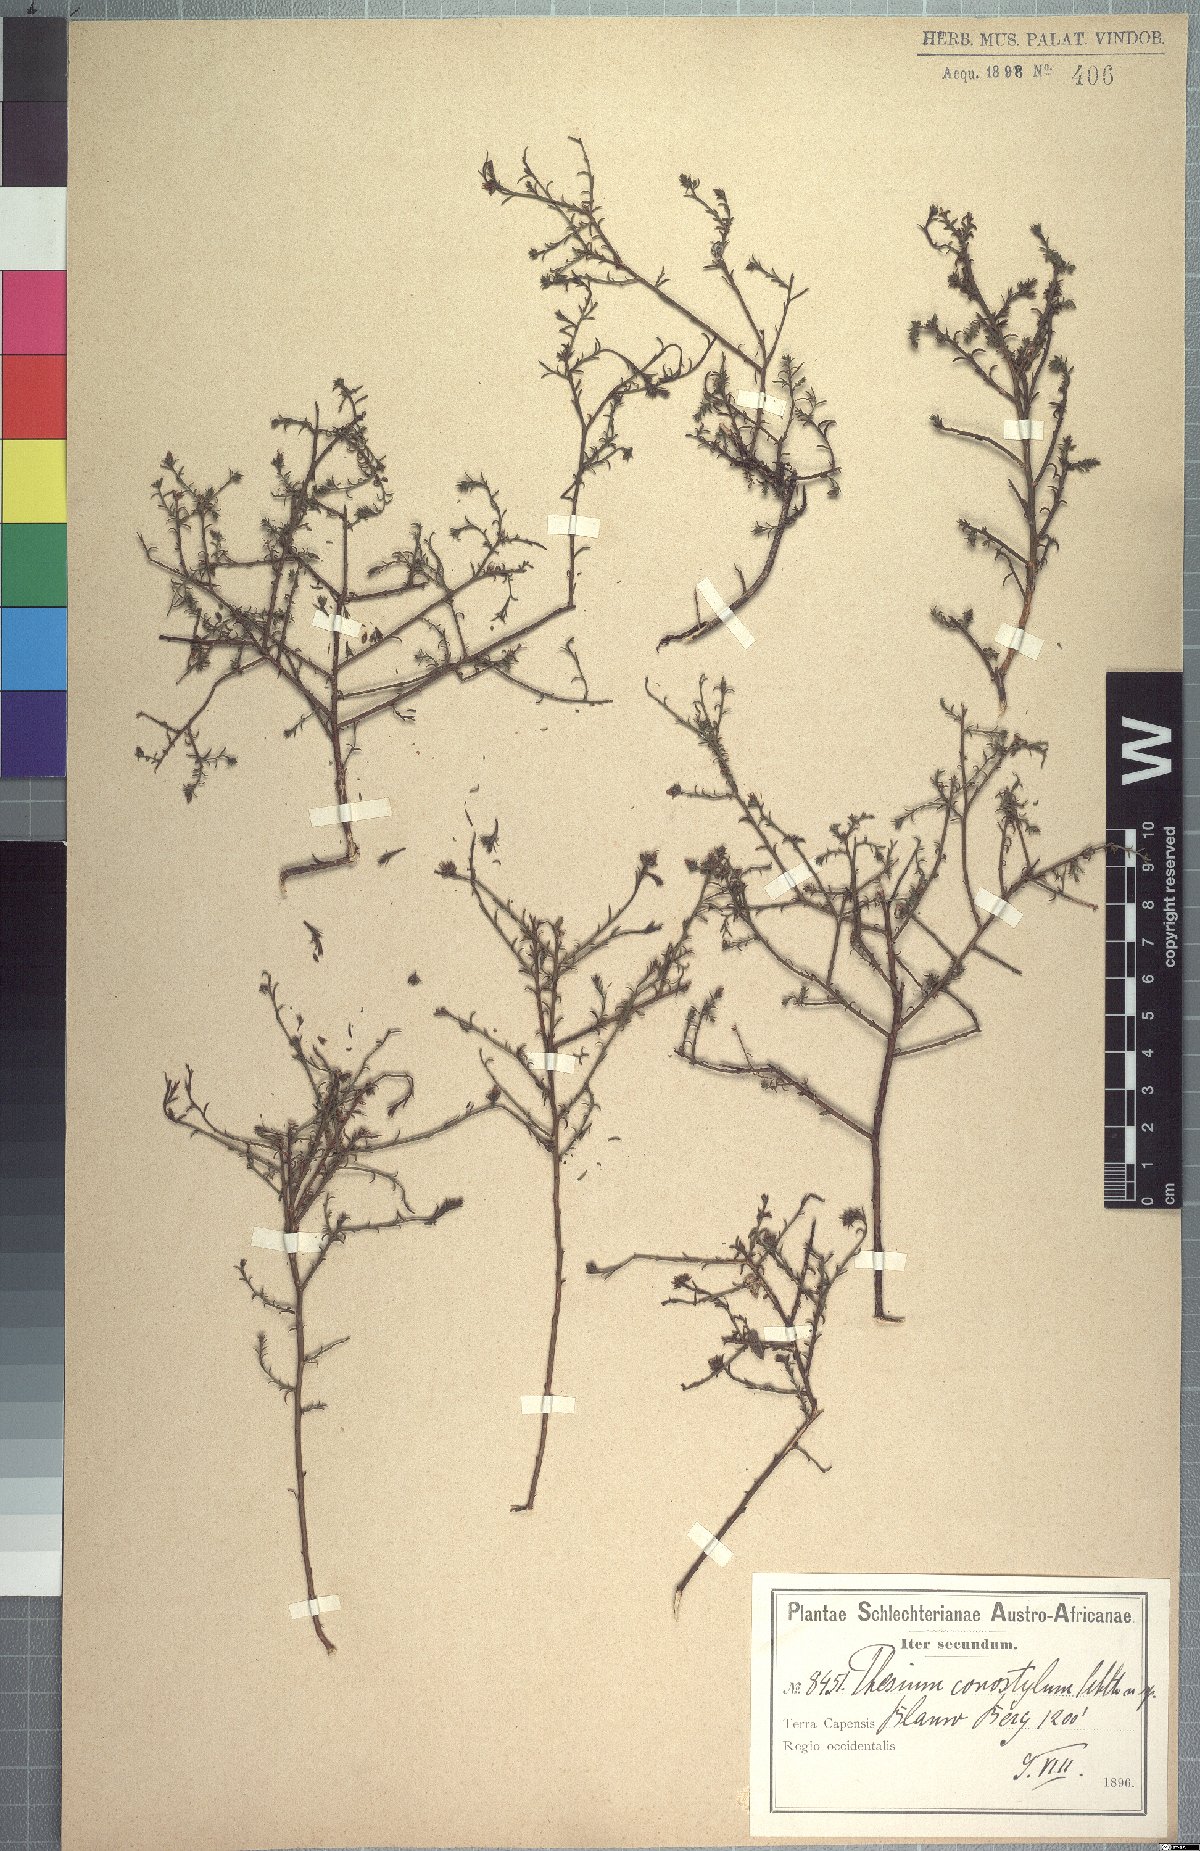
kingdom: Plantae
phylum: Tracheophyta
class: Magnoliopsida
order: Santalales
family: Thesiaceae
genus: Thesium
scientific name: Thesium conostylum
